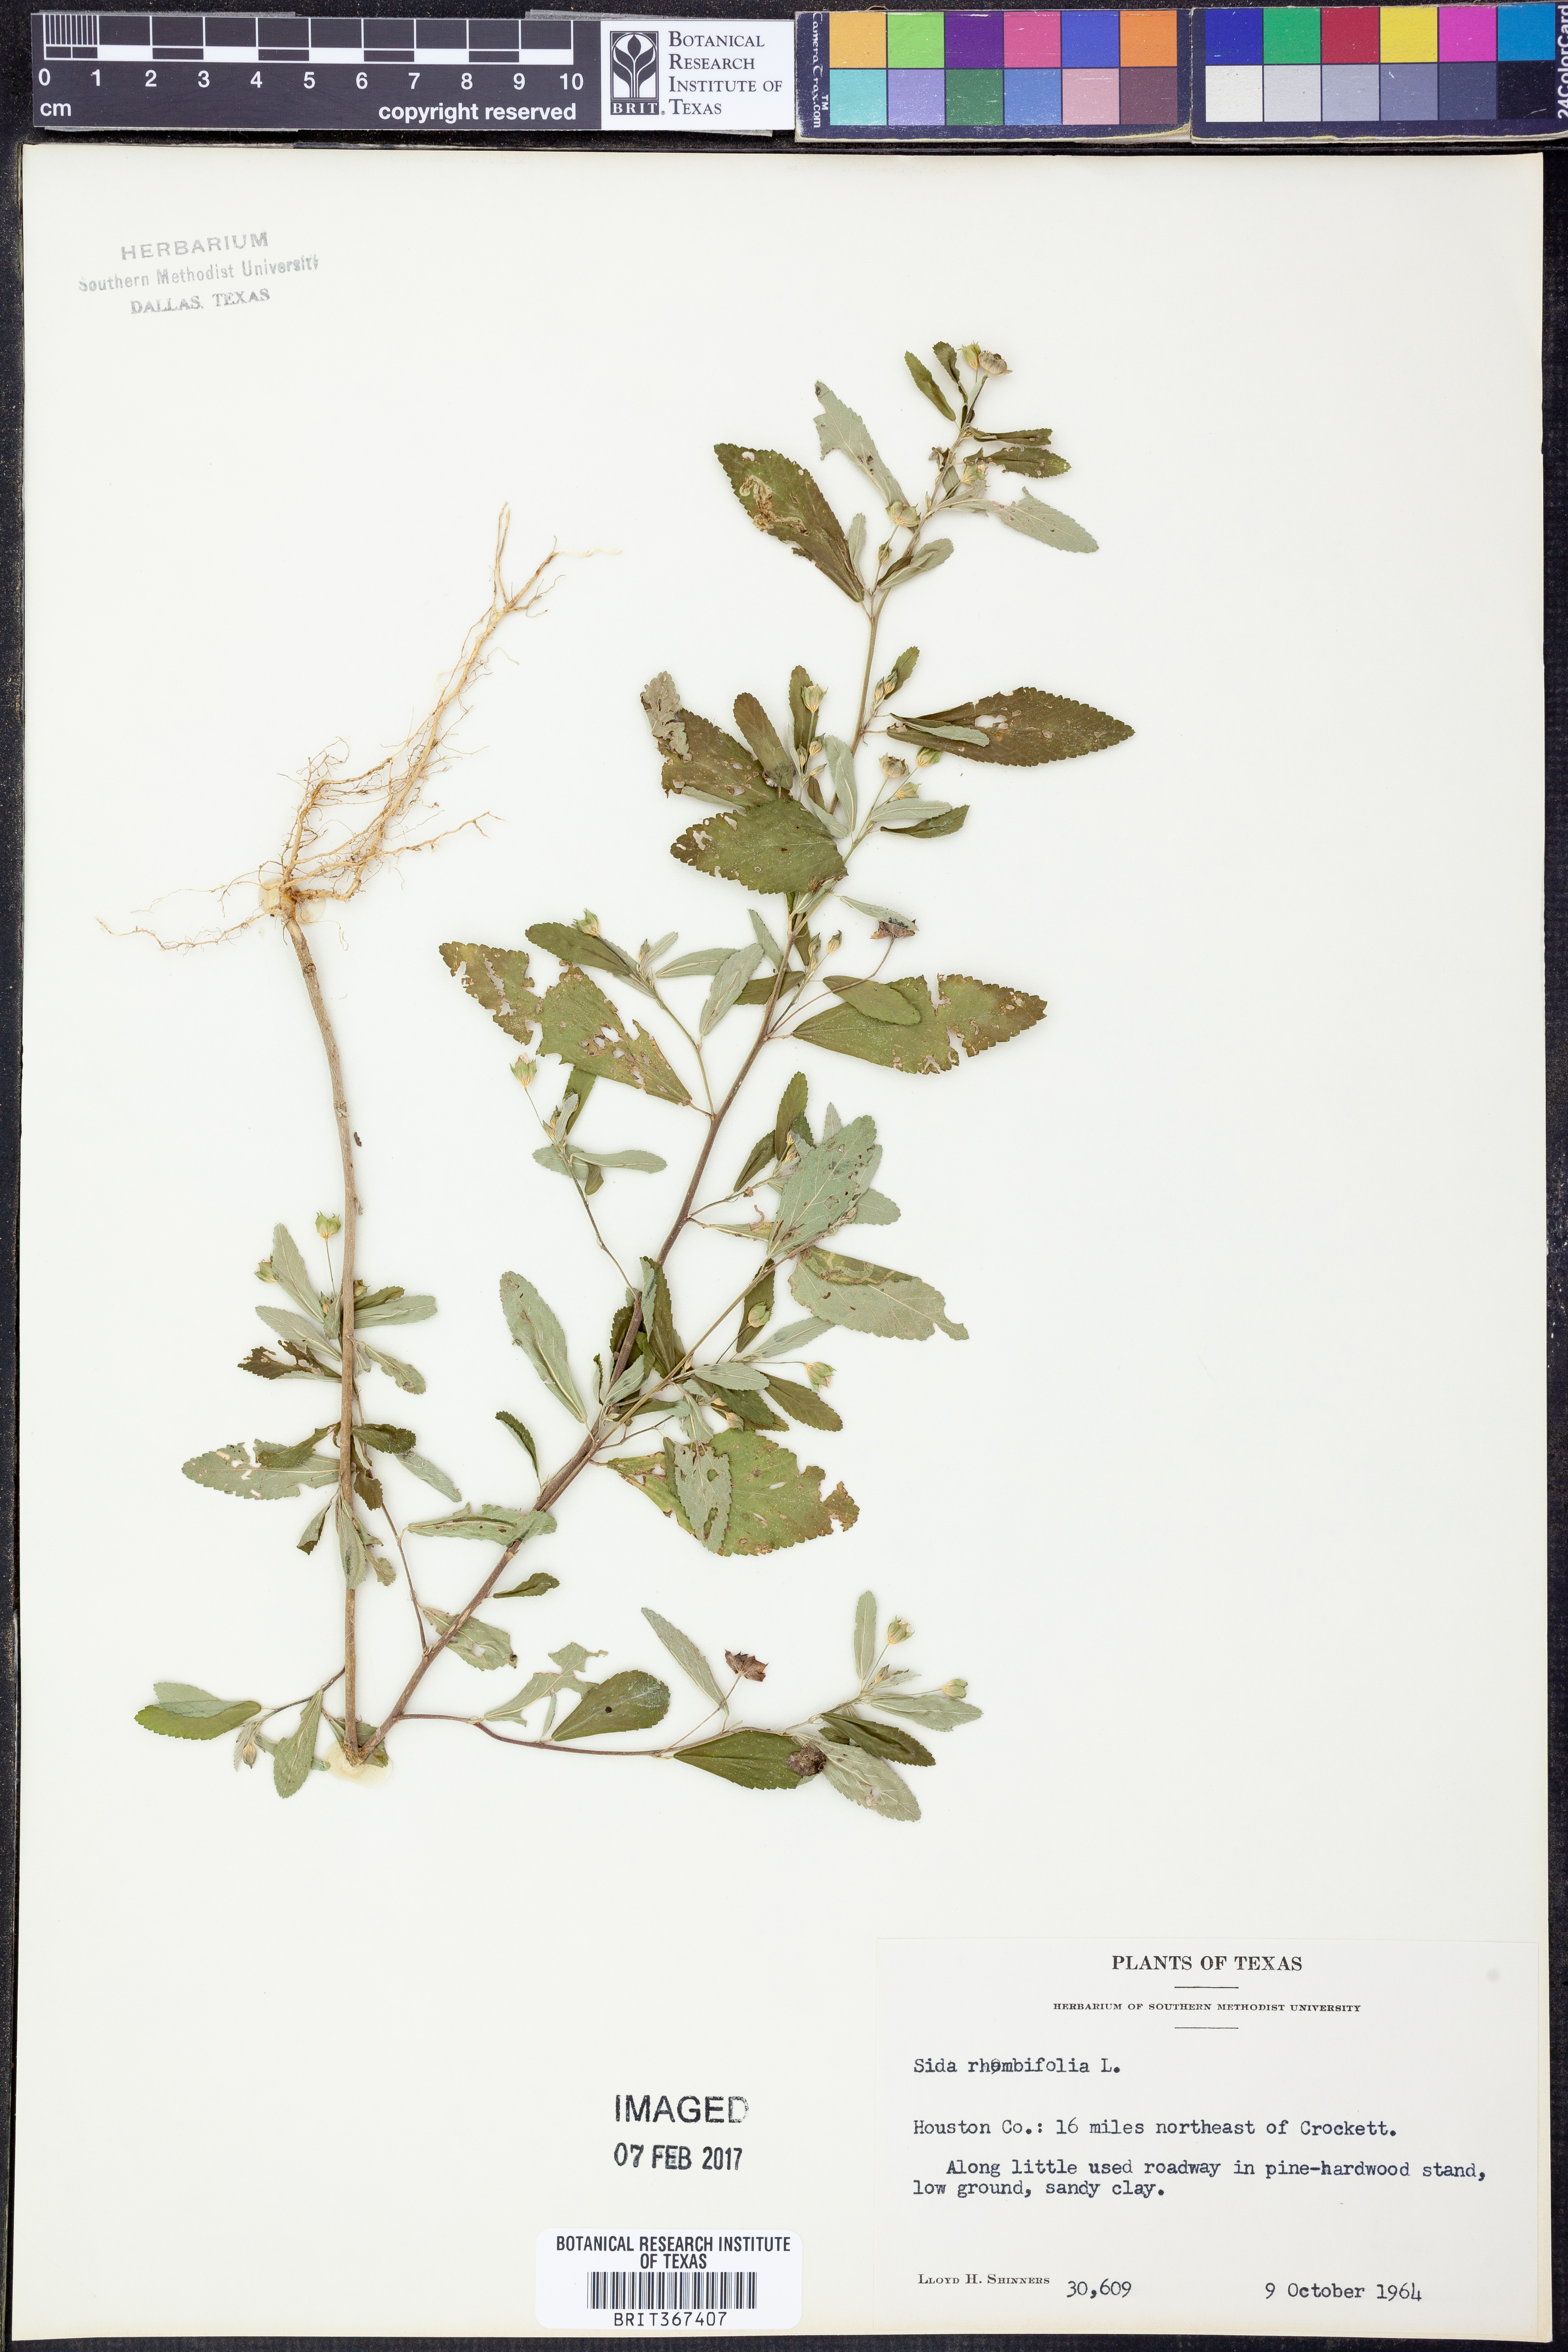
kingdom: Plantae
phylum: Tracheophyta
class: Magnoliopsida
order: Malvales
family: Malvaceae
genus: Sida
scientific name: Sida rhombifolia
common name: Queensland-hemp
